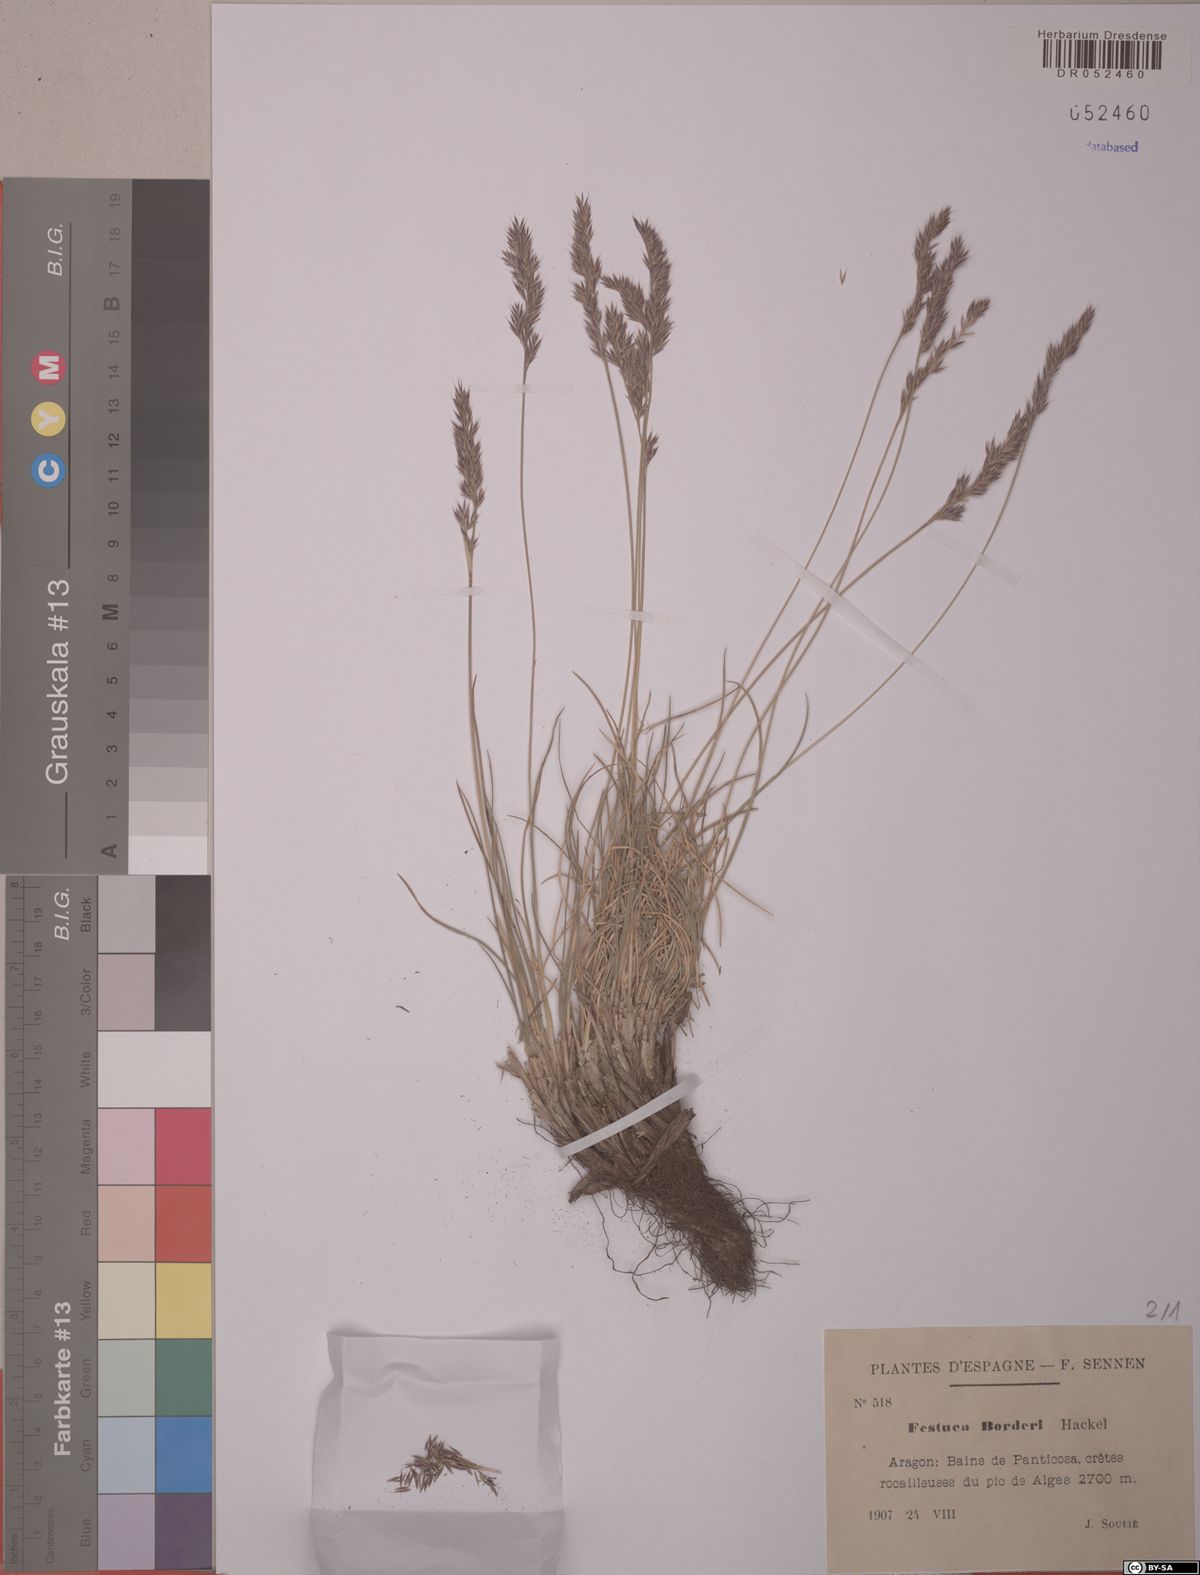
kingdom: Plantae
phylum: Tracheophyta
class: Liliopsida
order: Poales
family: Poaceae
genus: Festuca
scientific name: Festuca borderii
